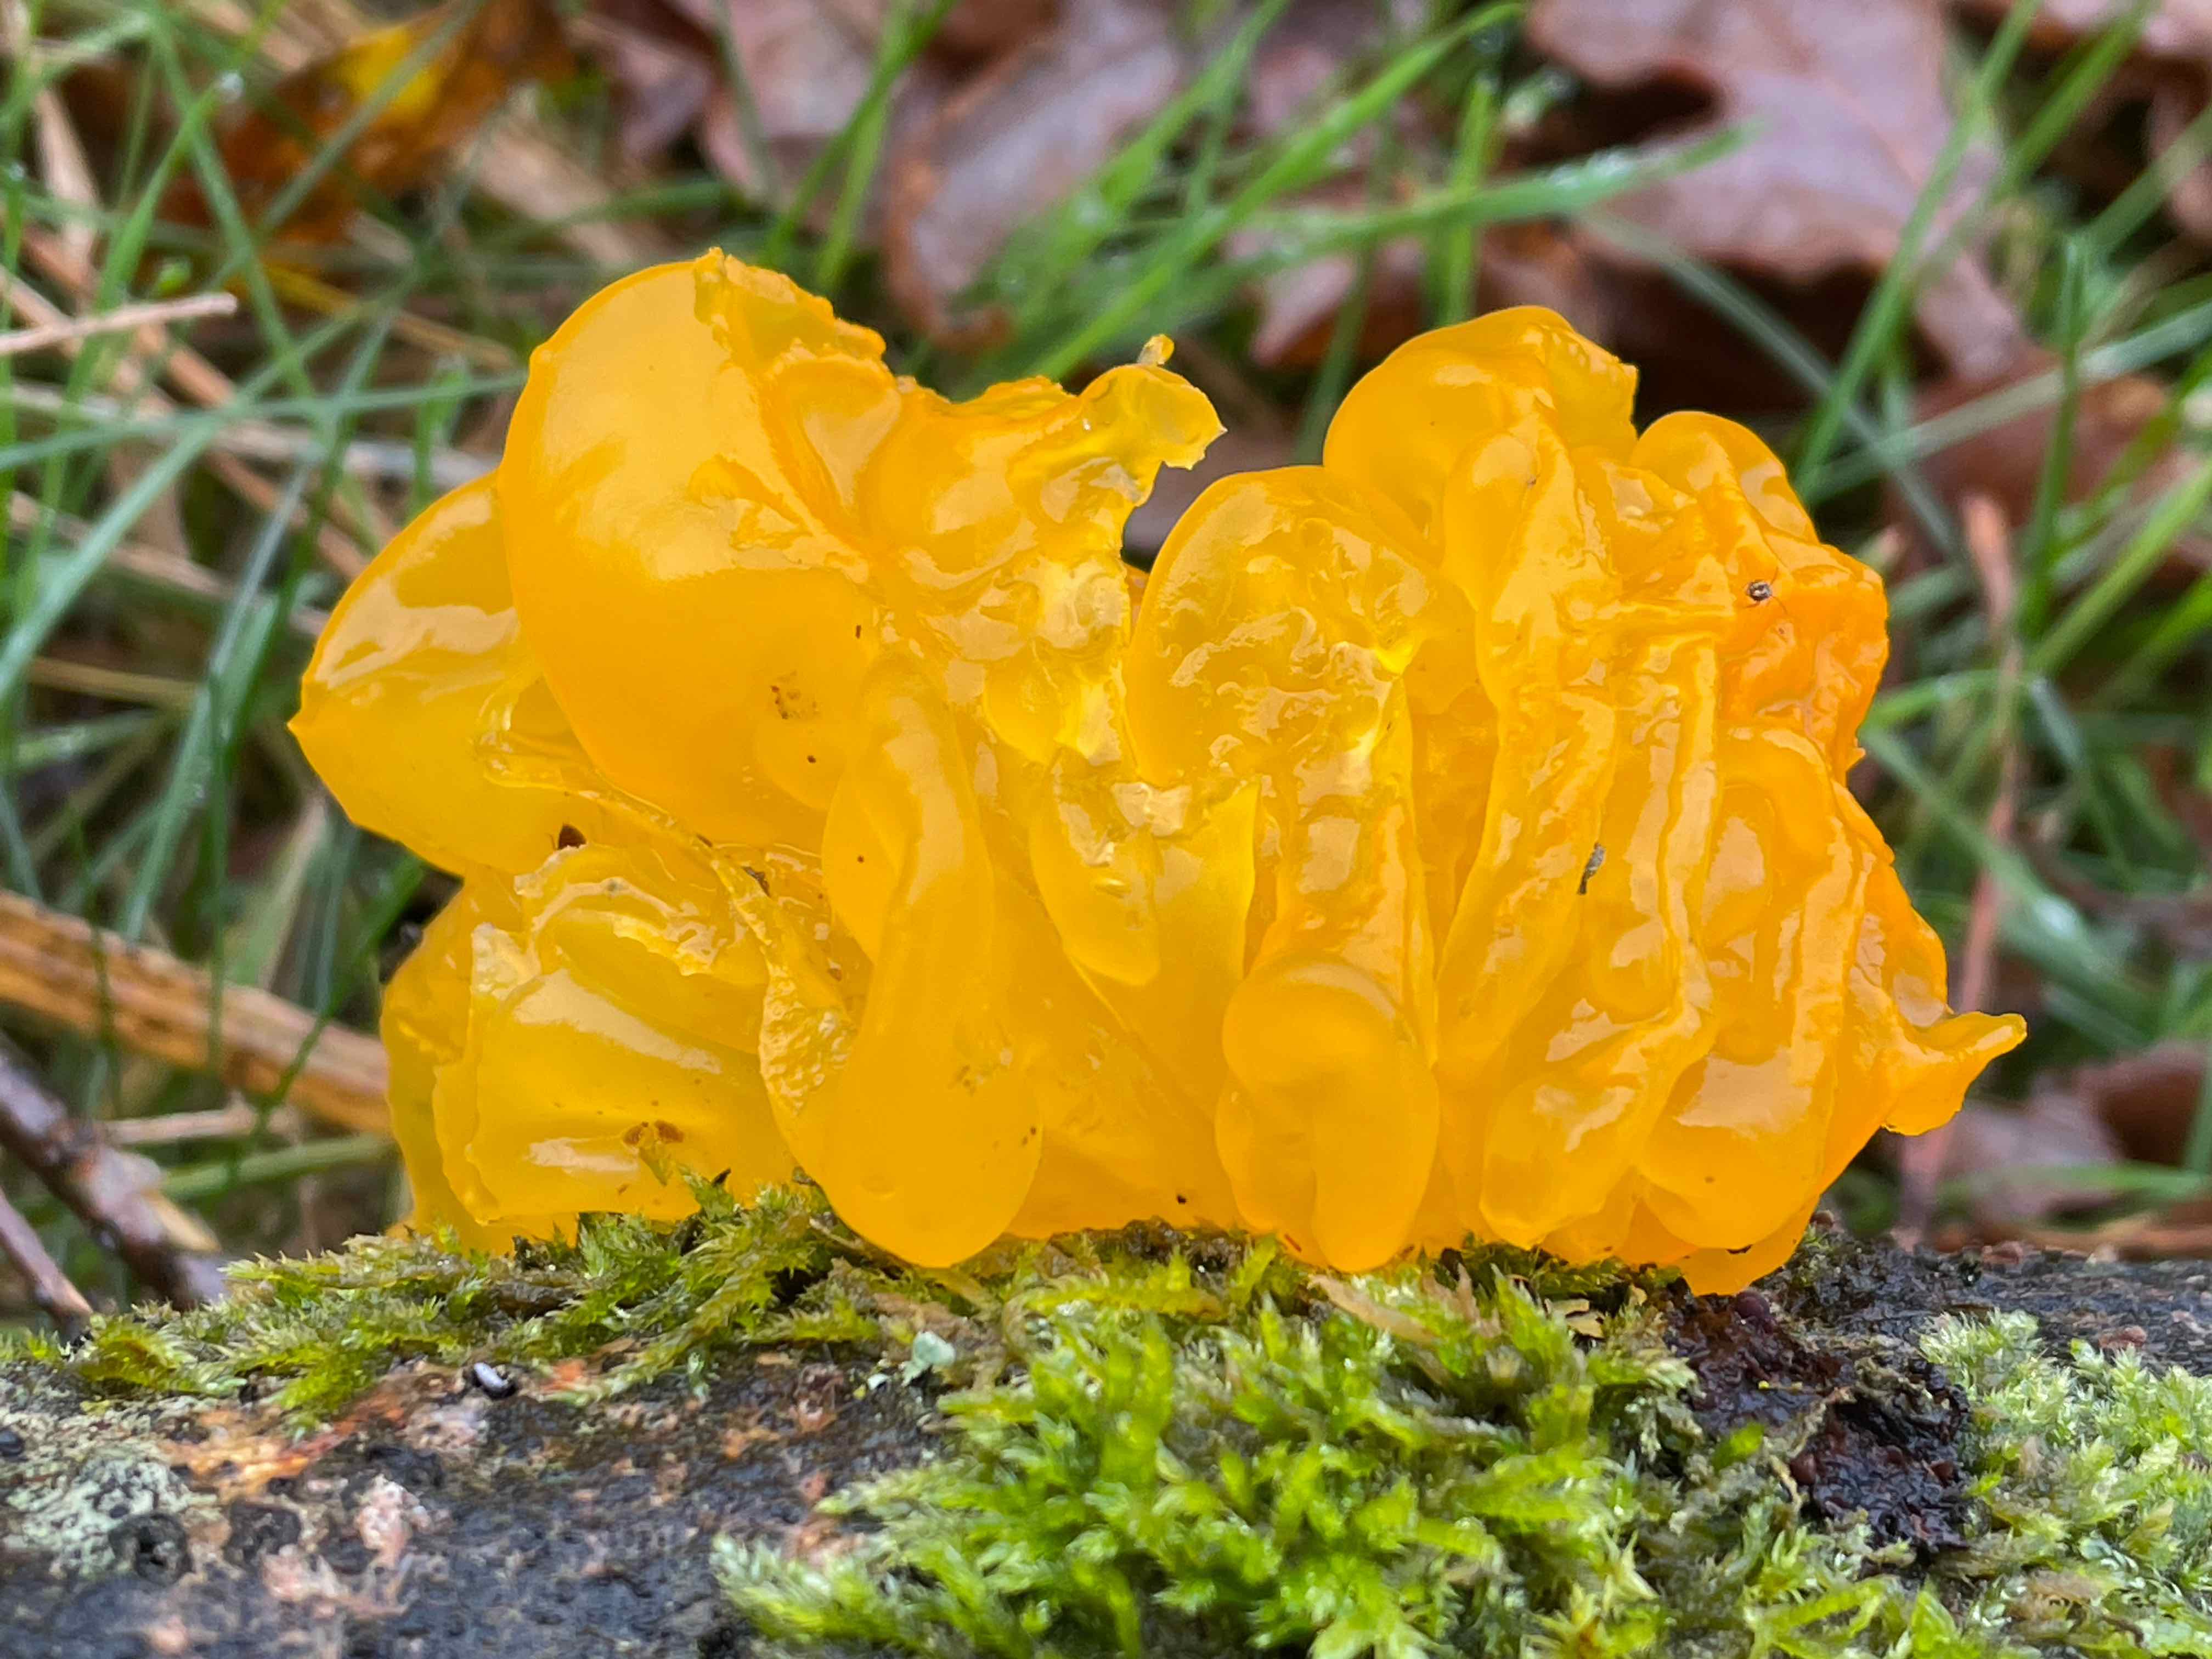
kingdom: Fungi
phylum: Basidiomycota
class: Tremellomycetes
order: Tremellales
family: Tremellaceae
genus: Tremella
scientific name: Tremella mesenterica
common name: gul bævresvamp
